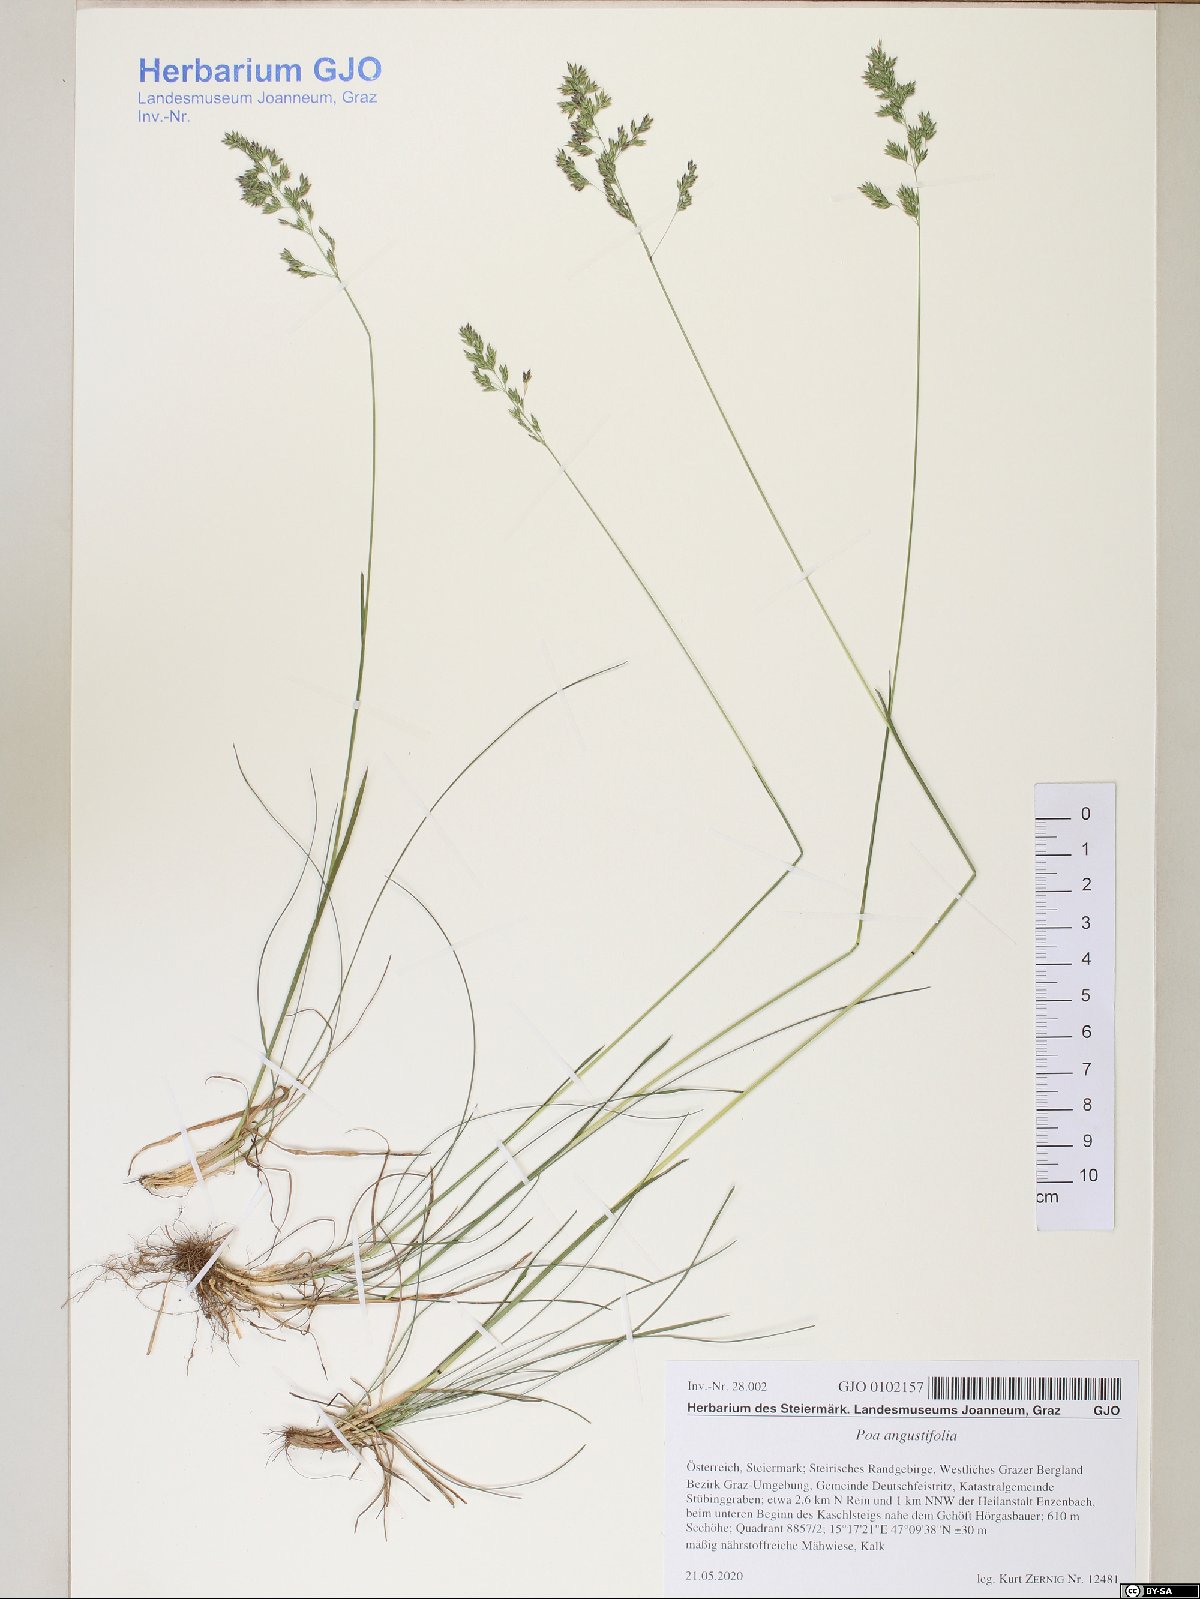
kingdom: Plantae
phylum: Tracheophyta
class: Liliopsida
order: Poales
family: Poaceae
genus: Poa
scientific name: Poa angustifolia
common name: Narrow-leaved meadow-grass
